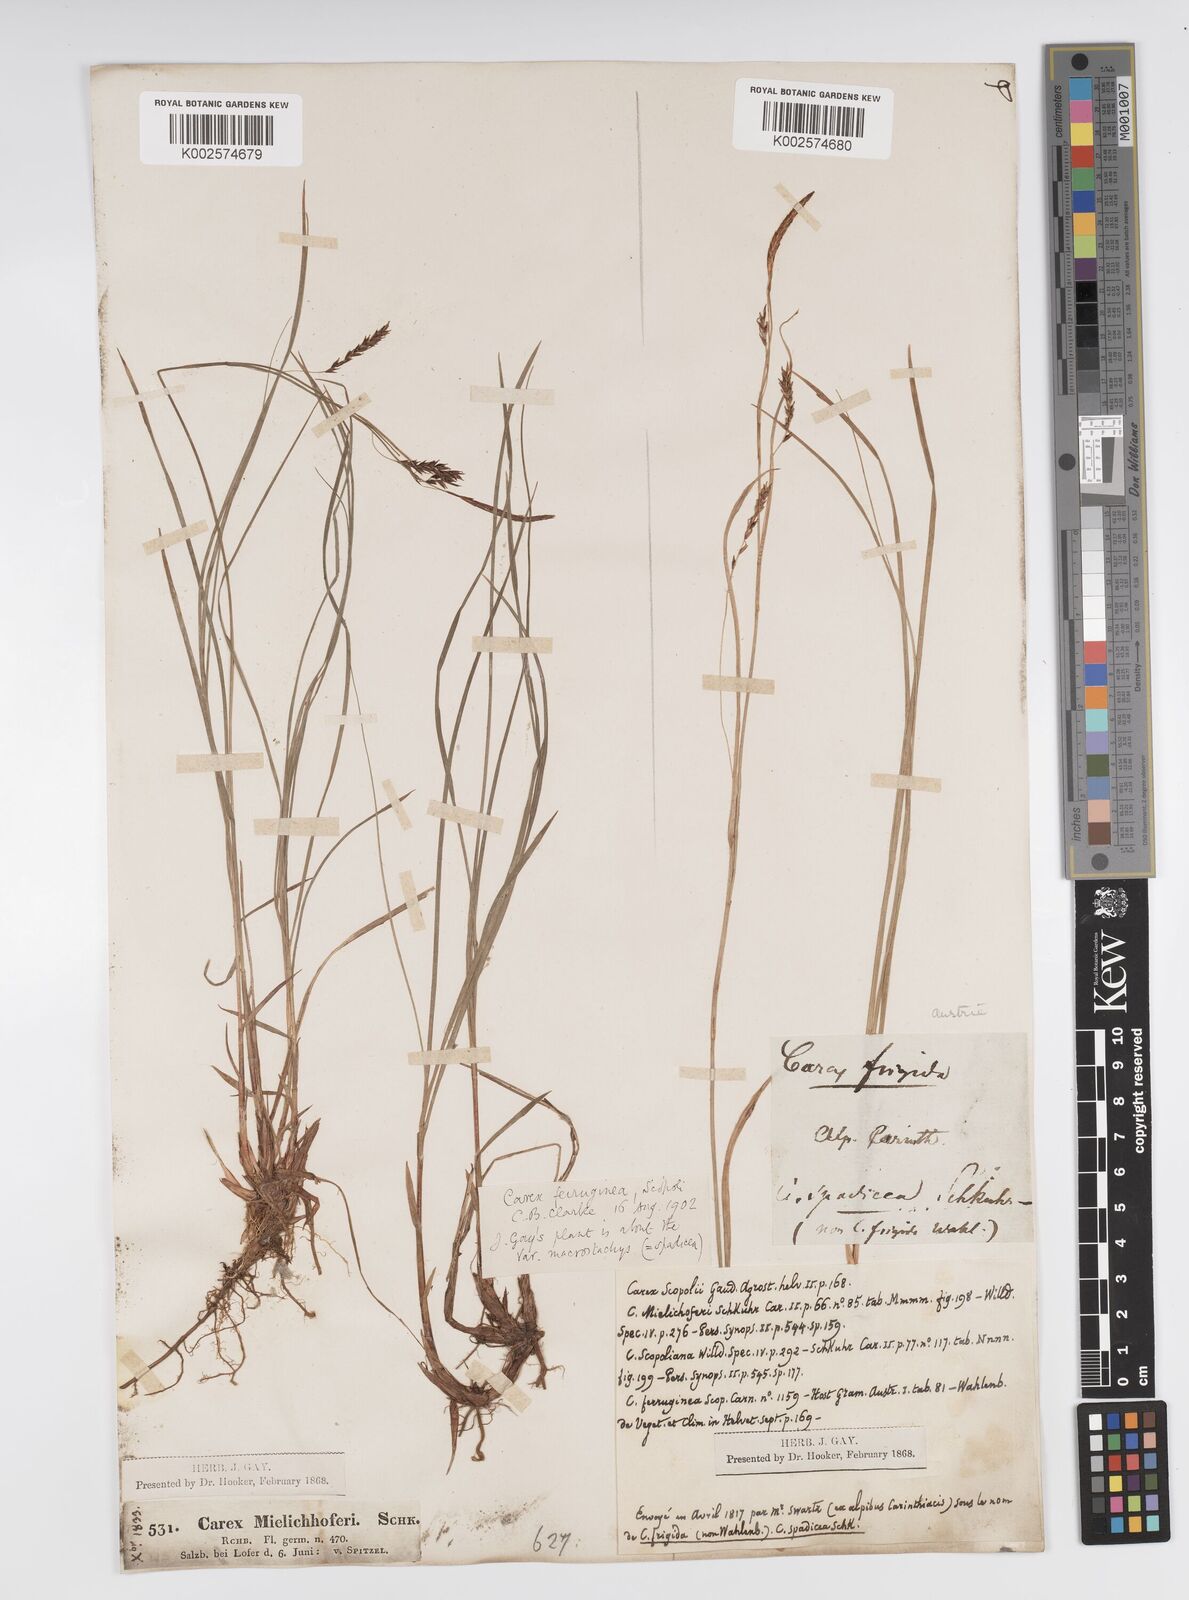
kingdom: Plantae
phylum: Tracheophyta
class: Liliopsida
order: Poales
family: Cyperaceae
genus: Carex
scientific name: Carex ferruginea
